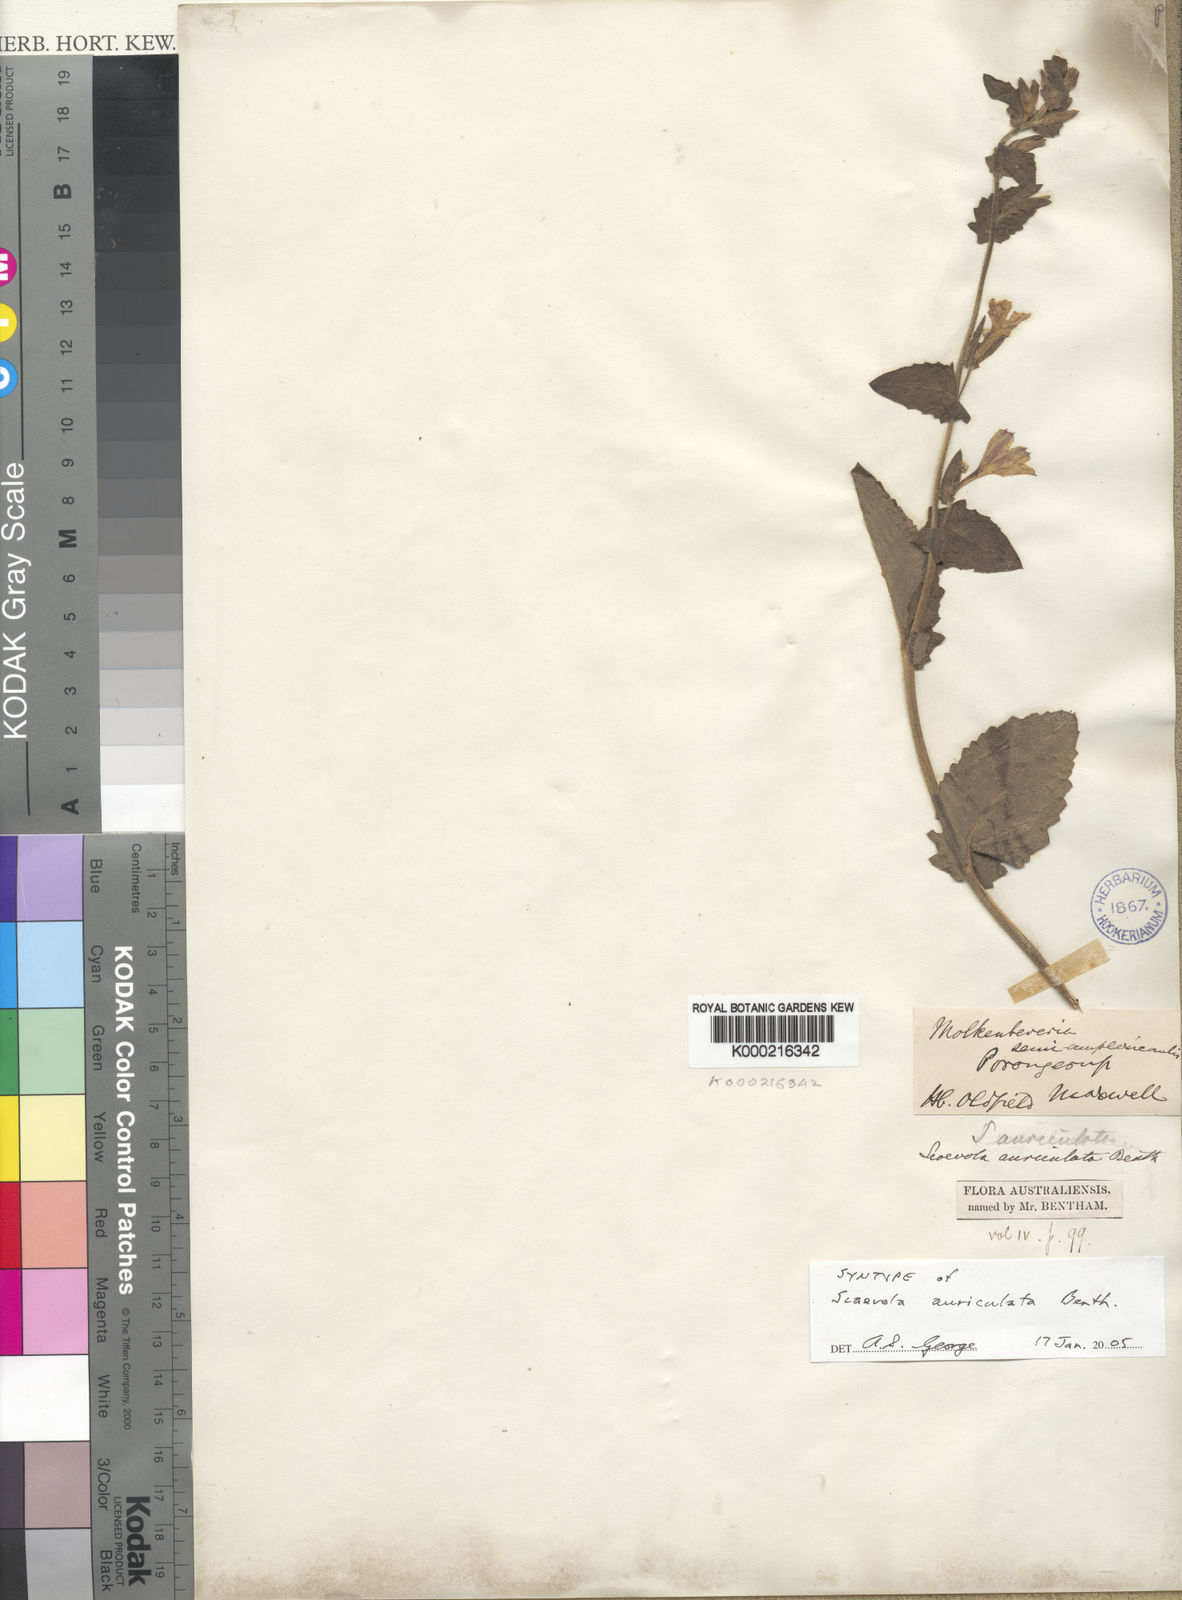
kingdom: Plantae
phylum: Tracheophyta
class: Magnoliopsida
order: Asterales
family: Goodeniaceae
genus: Scaevola
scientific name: Scaevola auriculata
